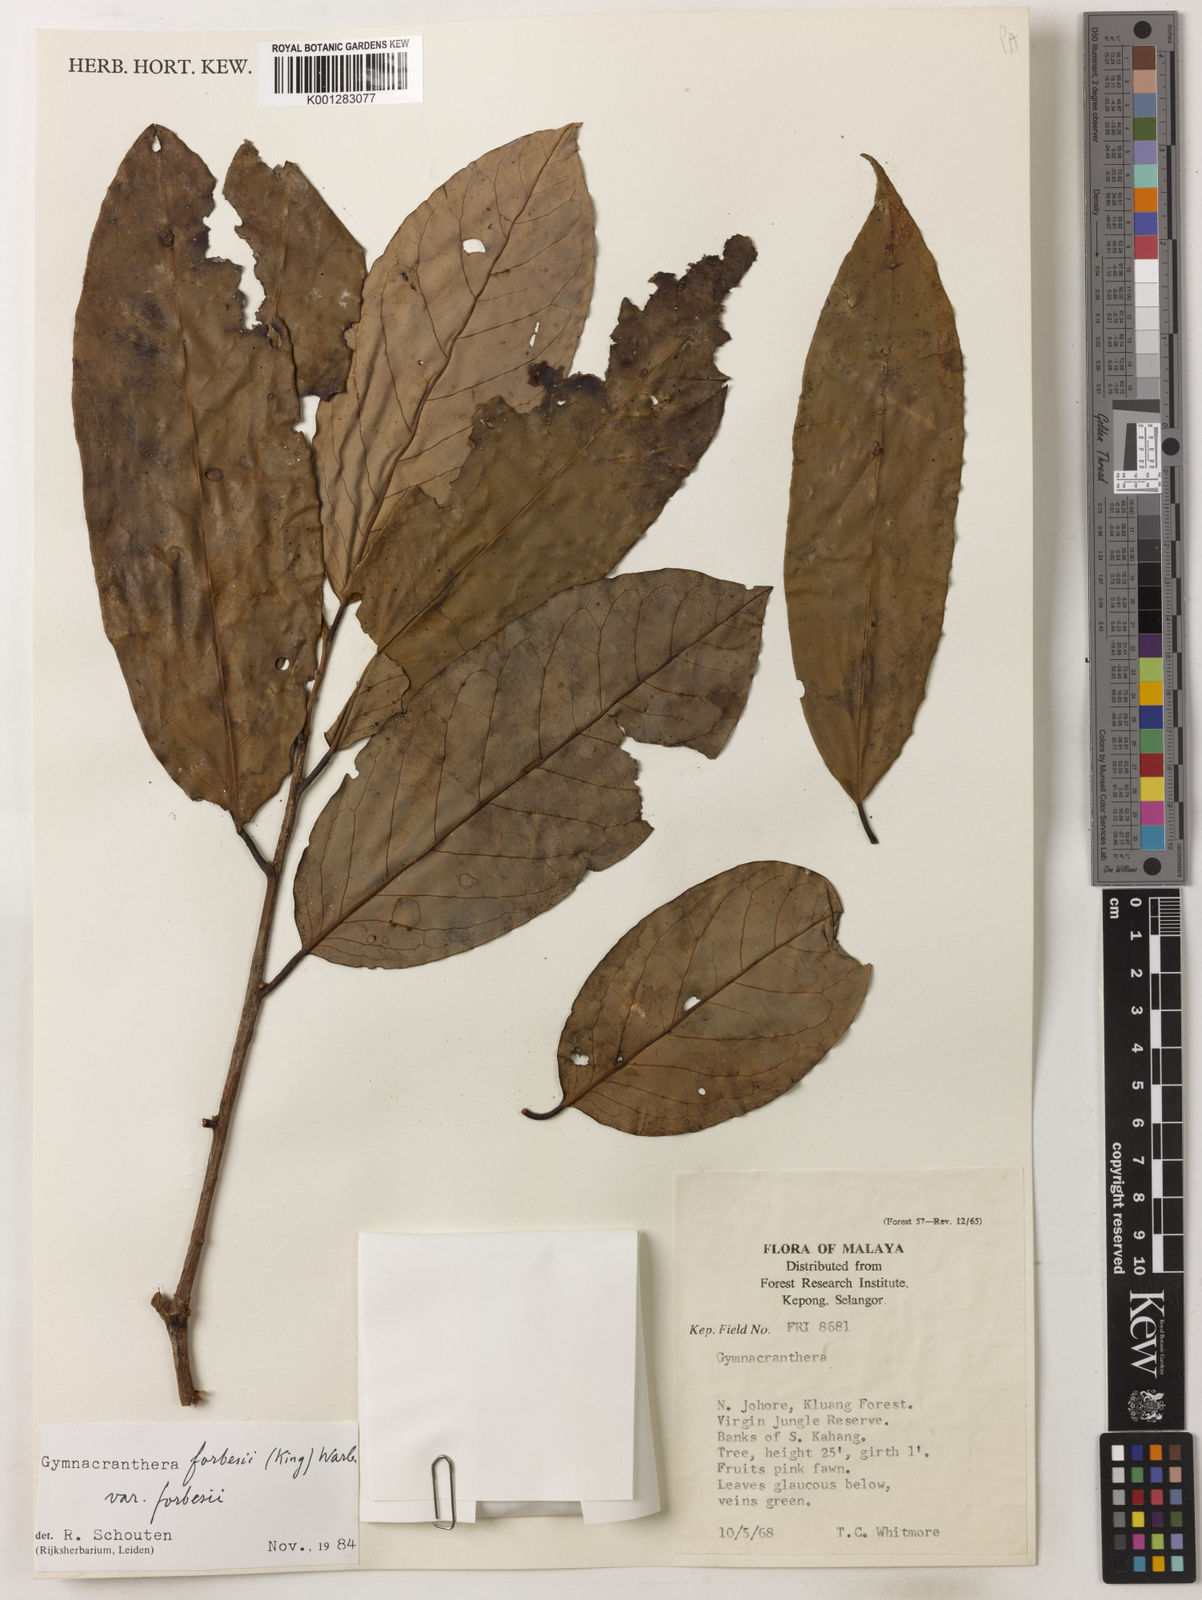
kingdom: Plantae
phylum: Tracheophyta
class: Magnoliopsida
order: Magnoliales
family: Myristicaceae
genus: Gymnacranthera
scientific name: Gymnacranthera forbesii
